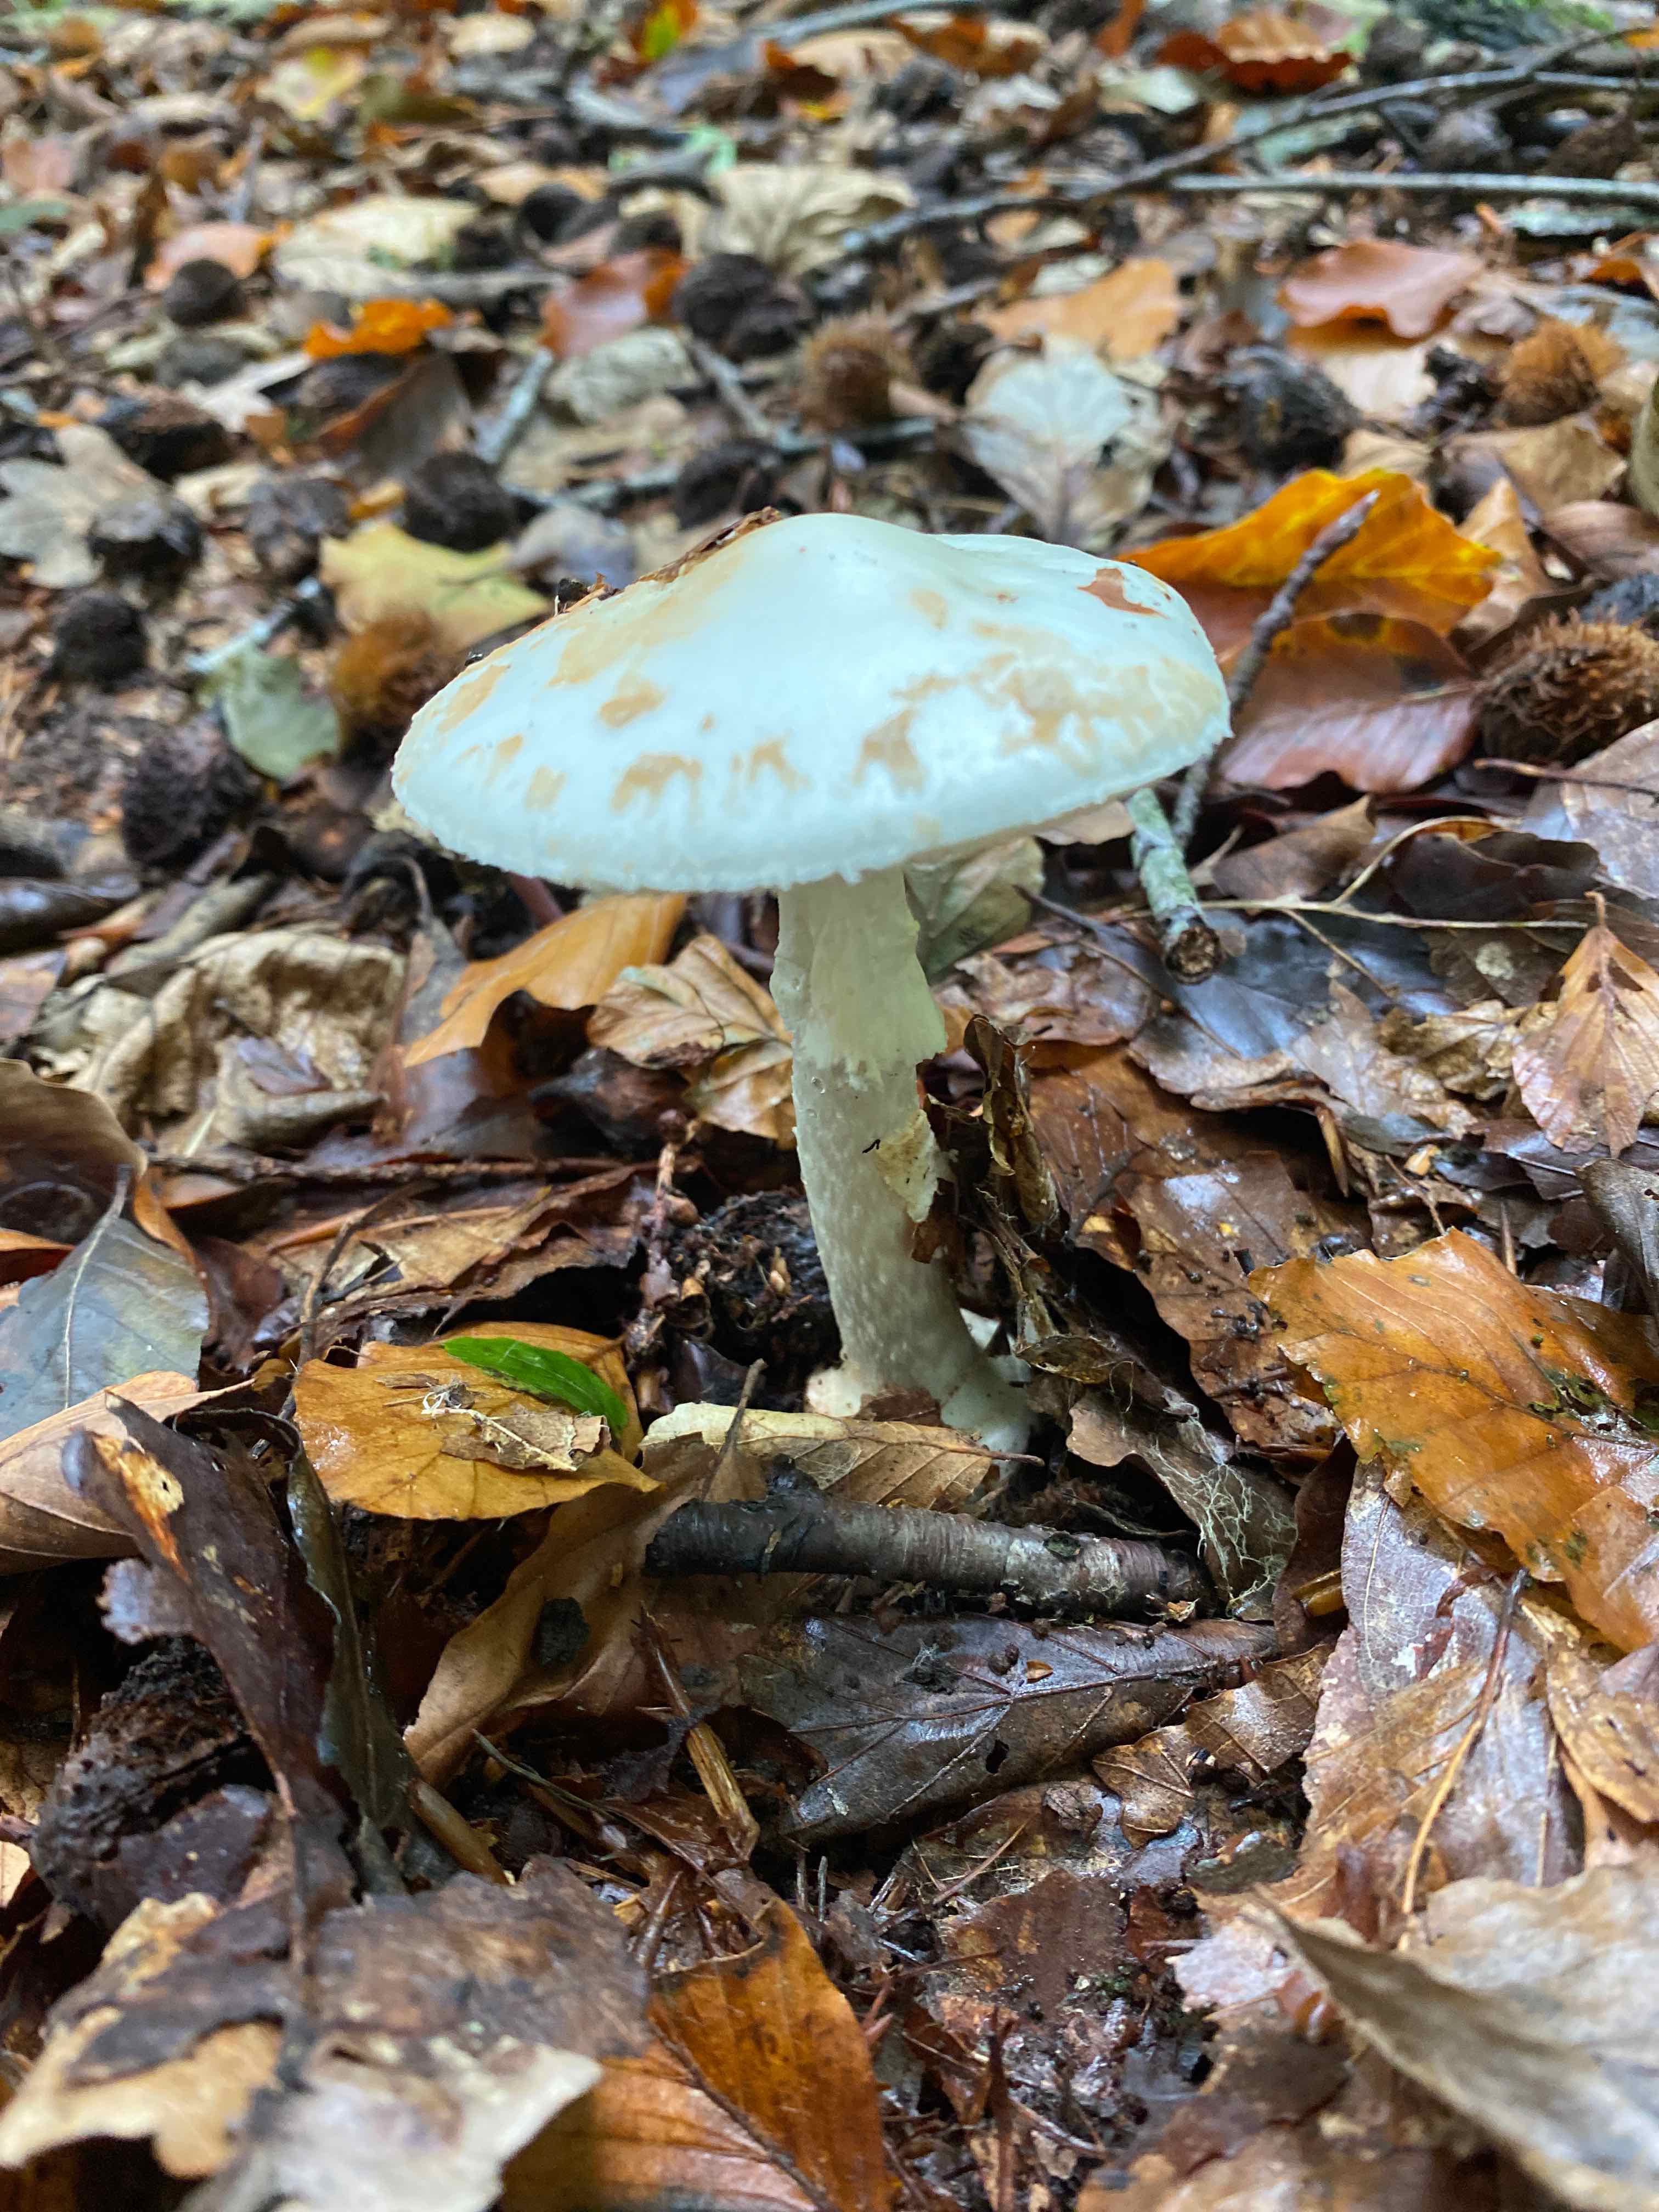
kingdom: Fungi
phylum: Basidiomycota
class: Agaricomycetes
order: Agaricales
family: Amanitaceae
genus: Amanita
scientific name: Amanita citrina
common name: False death-cap
